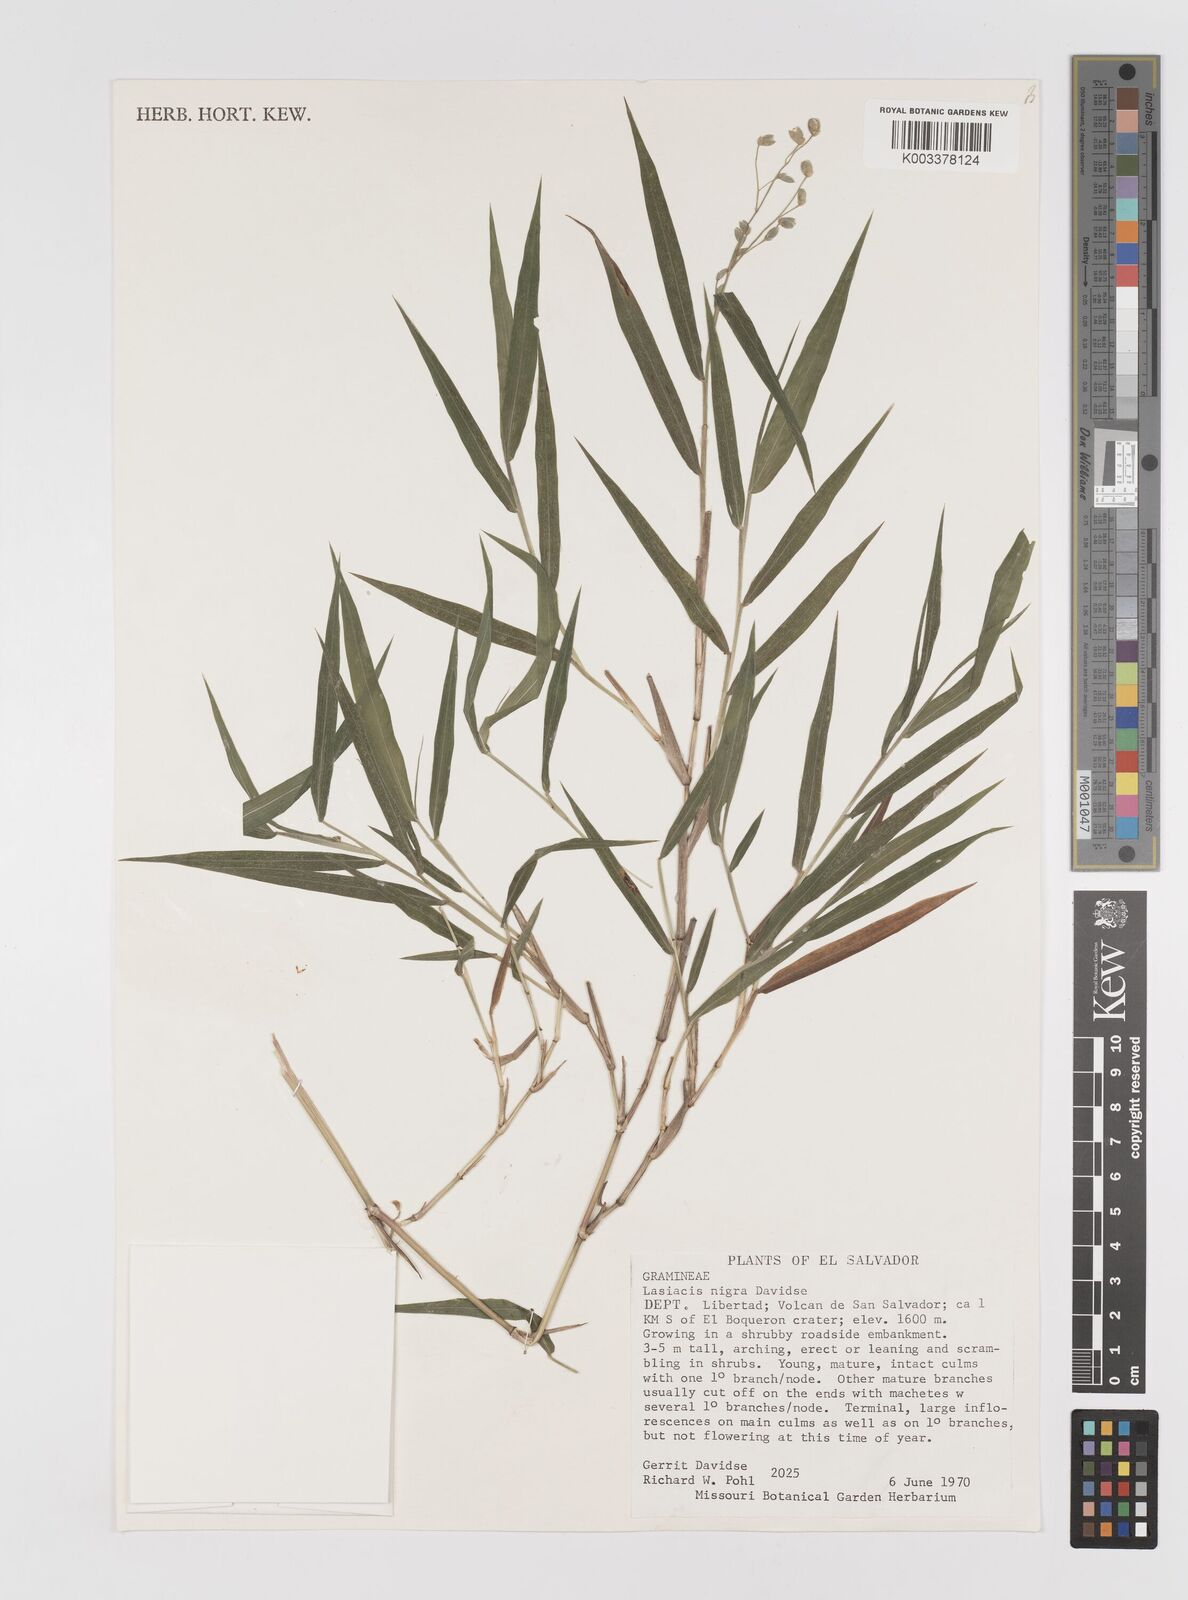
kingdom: Plantae
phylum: Tracheophyta
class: Liliopsida
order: Poales
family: Poaceae
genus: Lasiacis
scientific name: Lasiacis nigra
